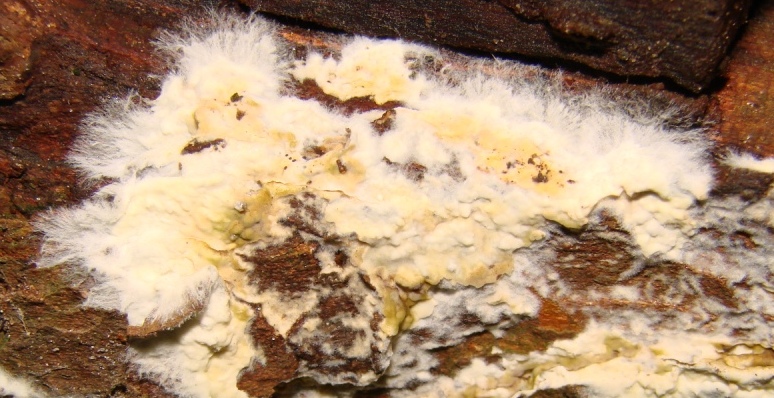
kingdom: Fungi
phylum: Basidiomycota
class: Agaricomycetes
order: Boletales
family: Coniophoraceae
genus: Coniophora
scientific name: Coniophora puteana
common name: gul tømmersvamp
